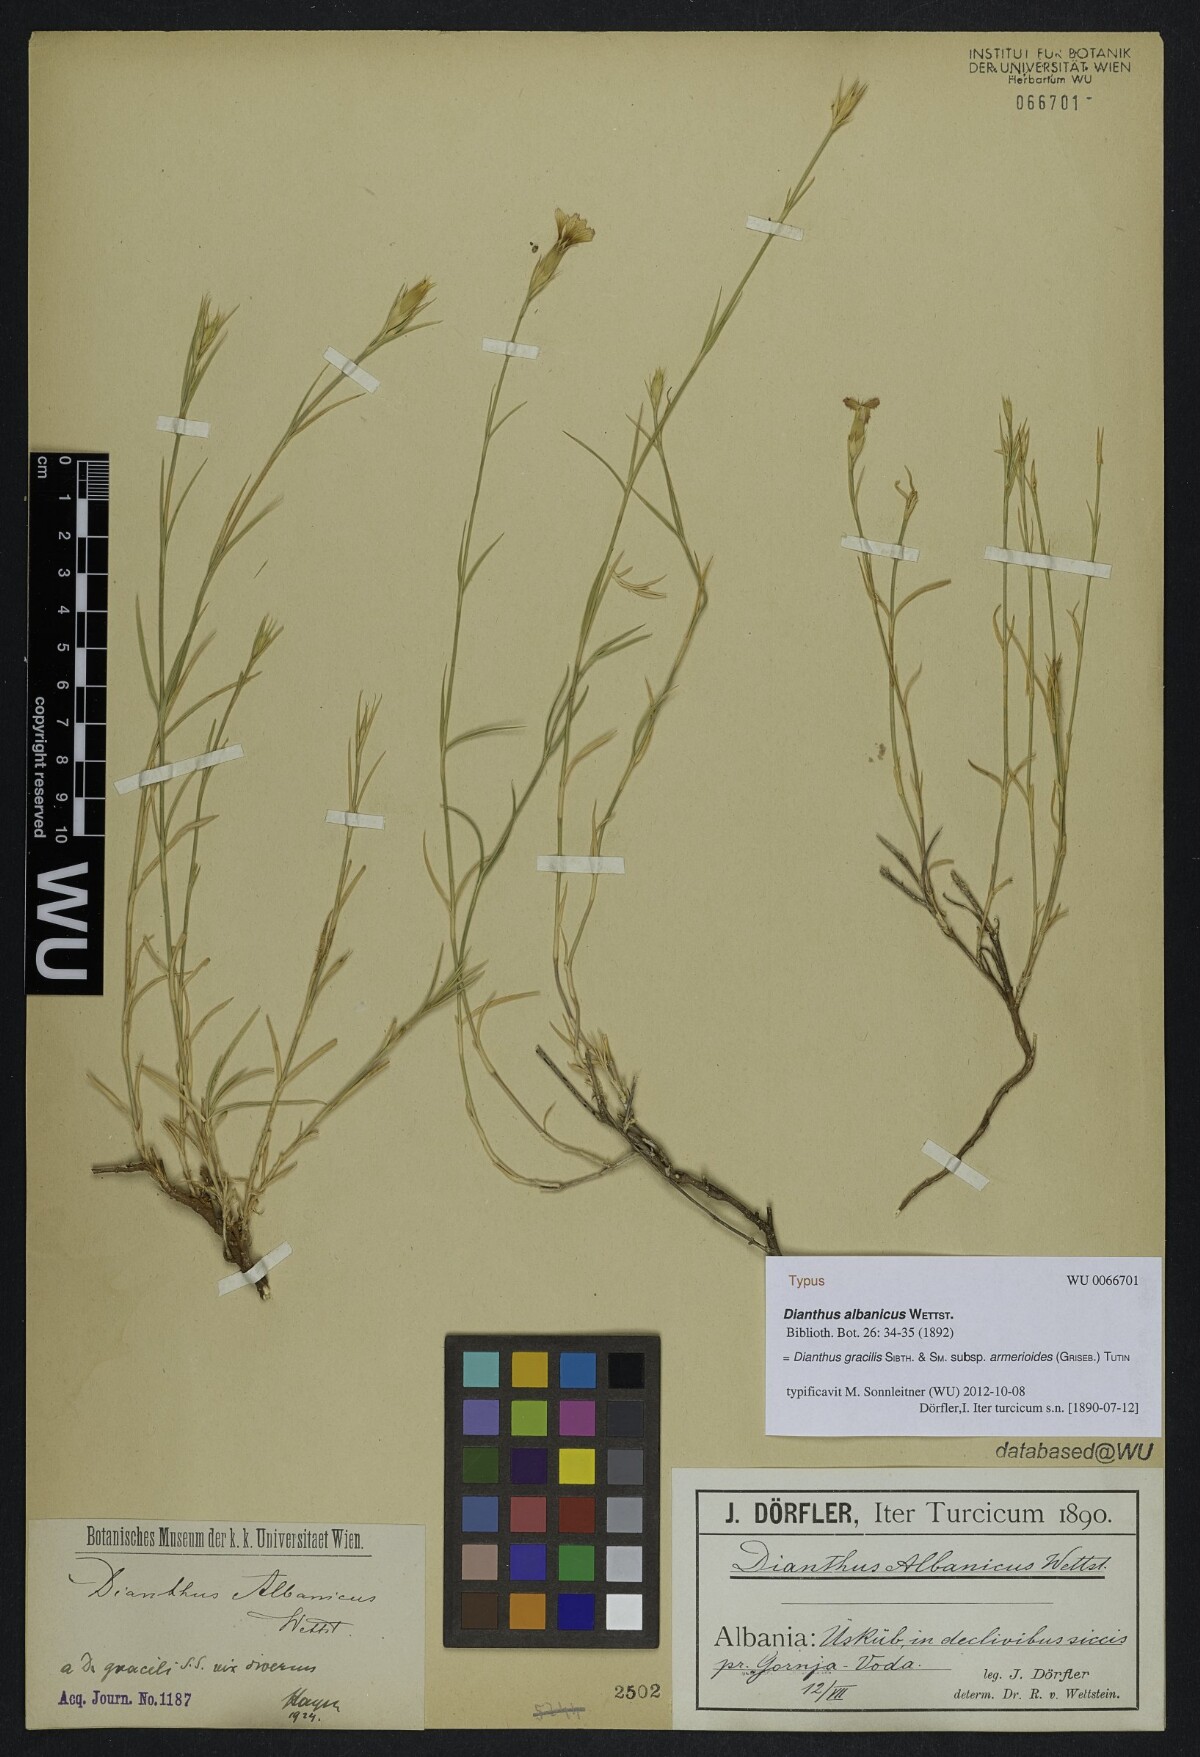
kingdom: Plantae
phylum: Tracheophyta
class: Magnoliopsida
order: Caryophyllales
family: Caryophyllaceae
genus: Dianthus
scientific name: Dianthus gracilis
